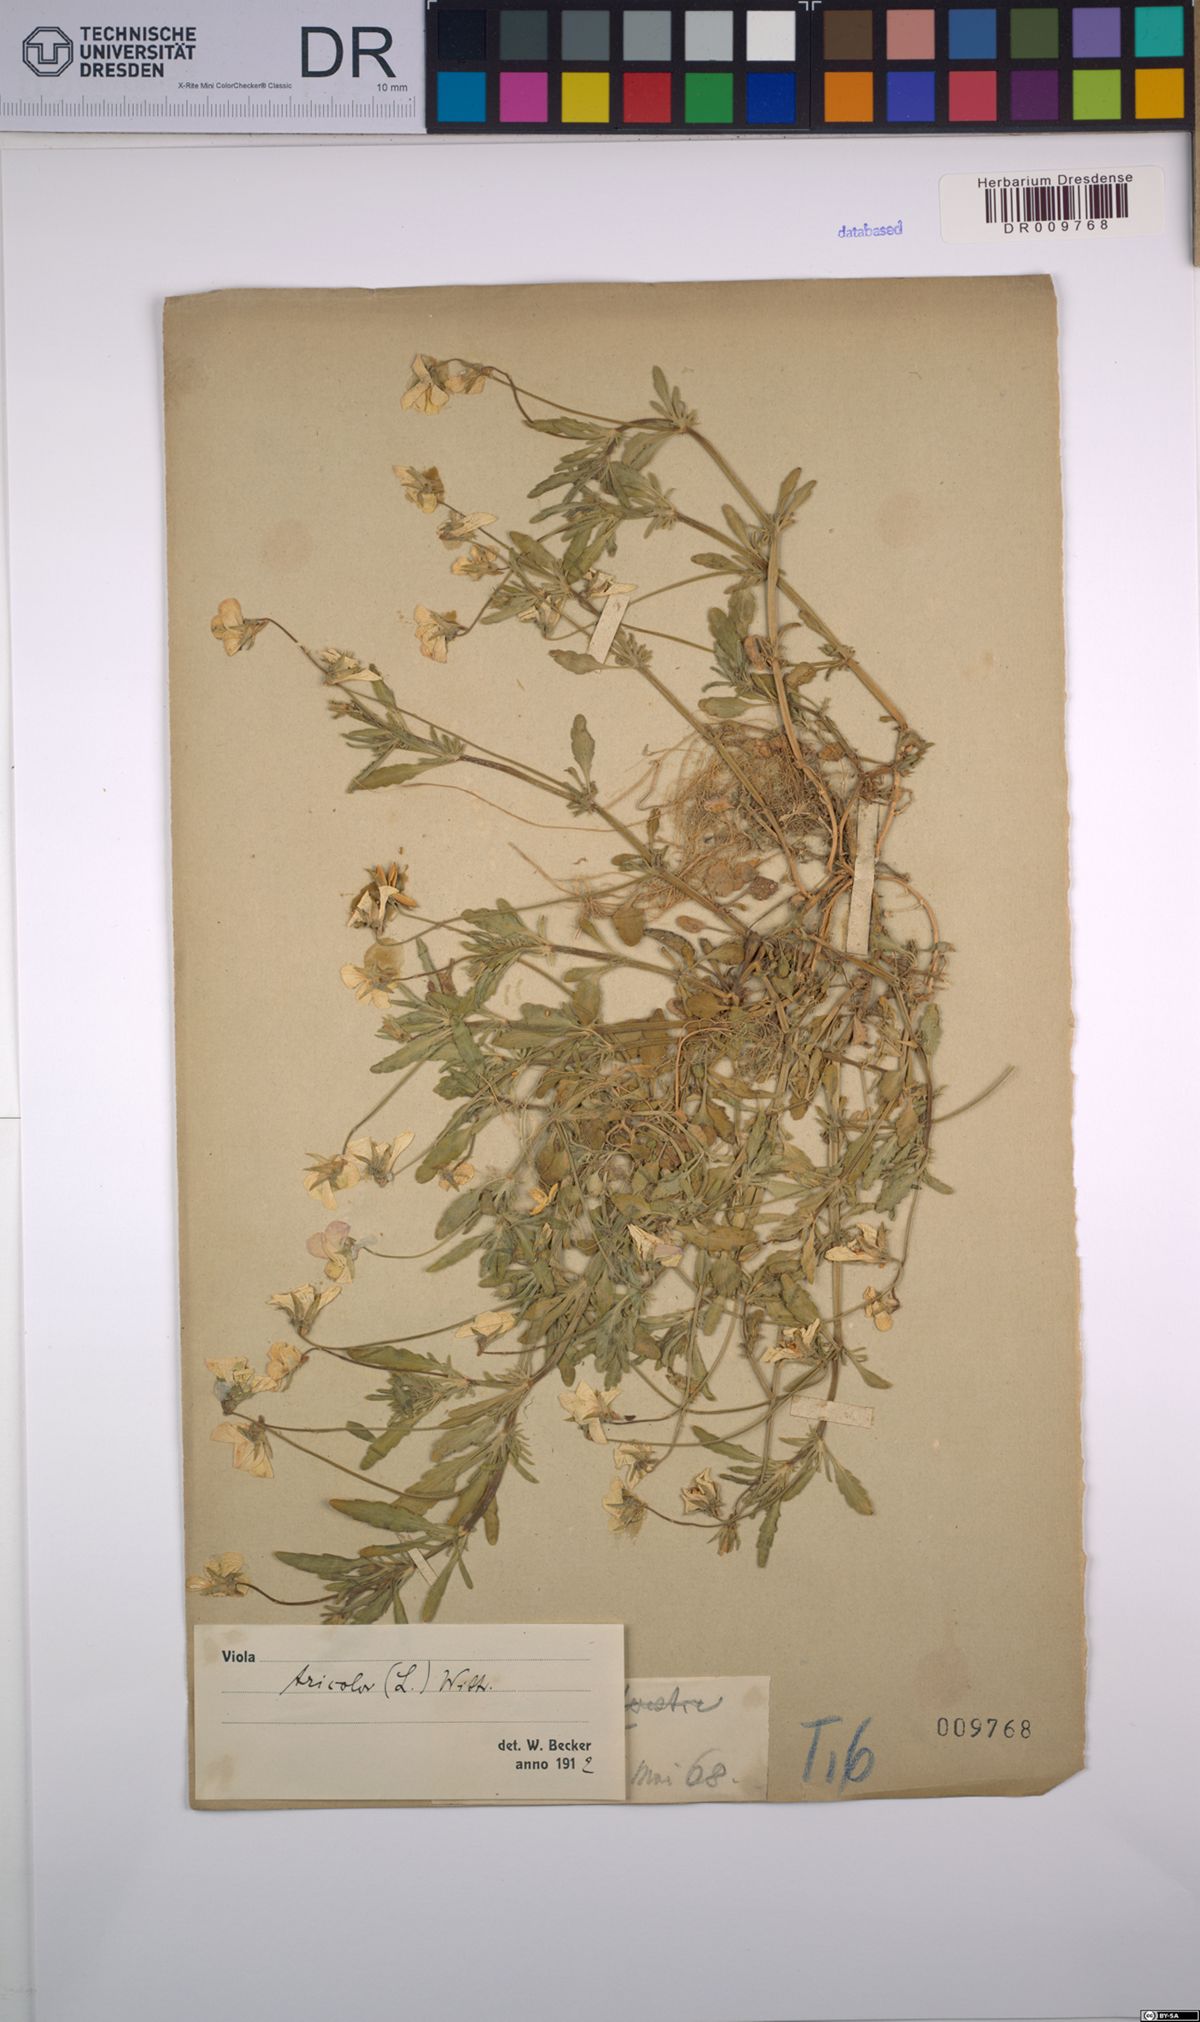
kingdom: Plantae
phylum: Tracheophyta
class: Magnoliopsida
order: Malpighiales
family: Violaceae
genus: Viola
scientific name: Viola tricolor
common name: Pansy
